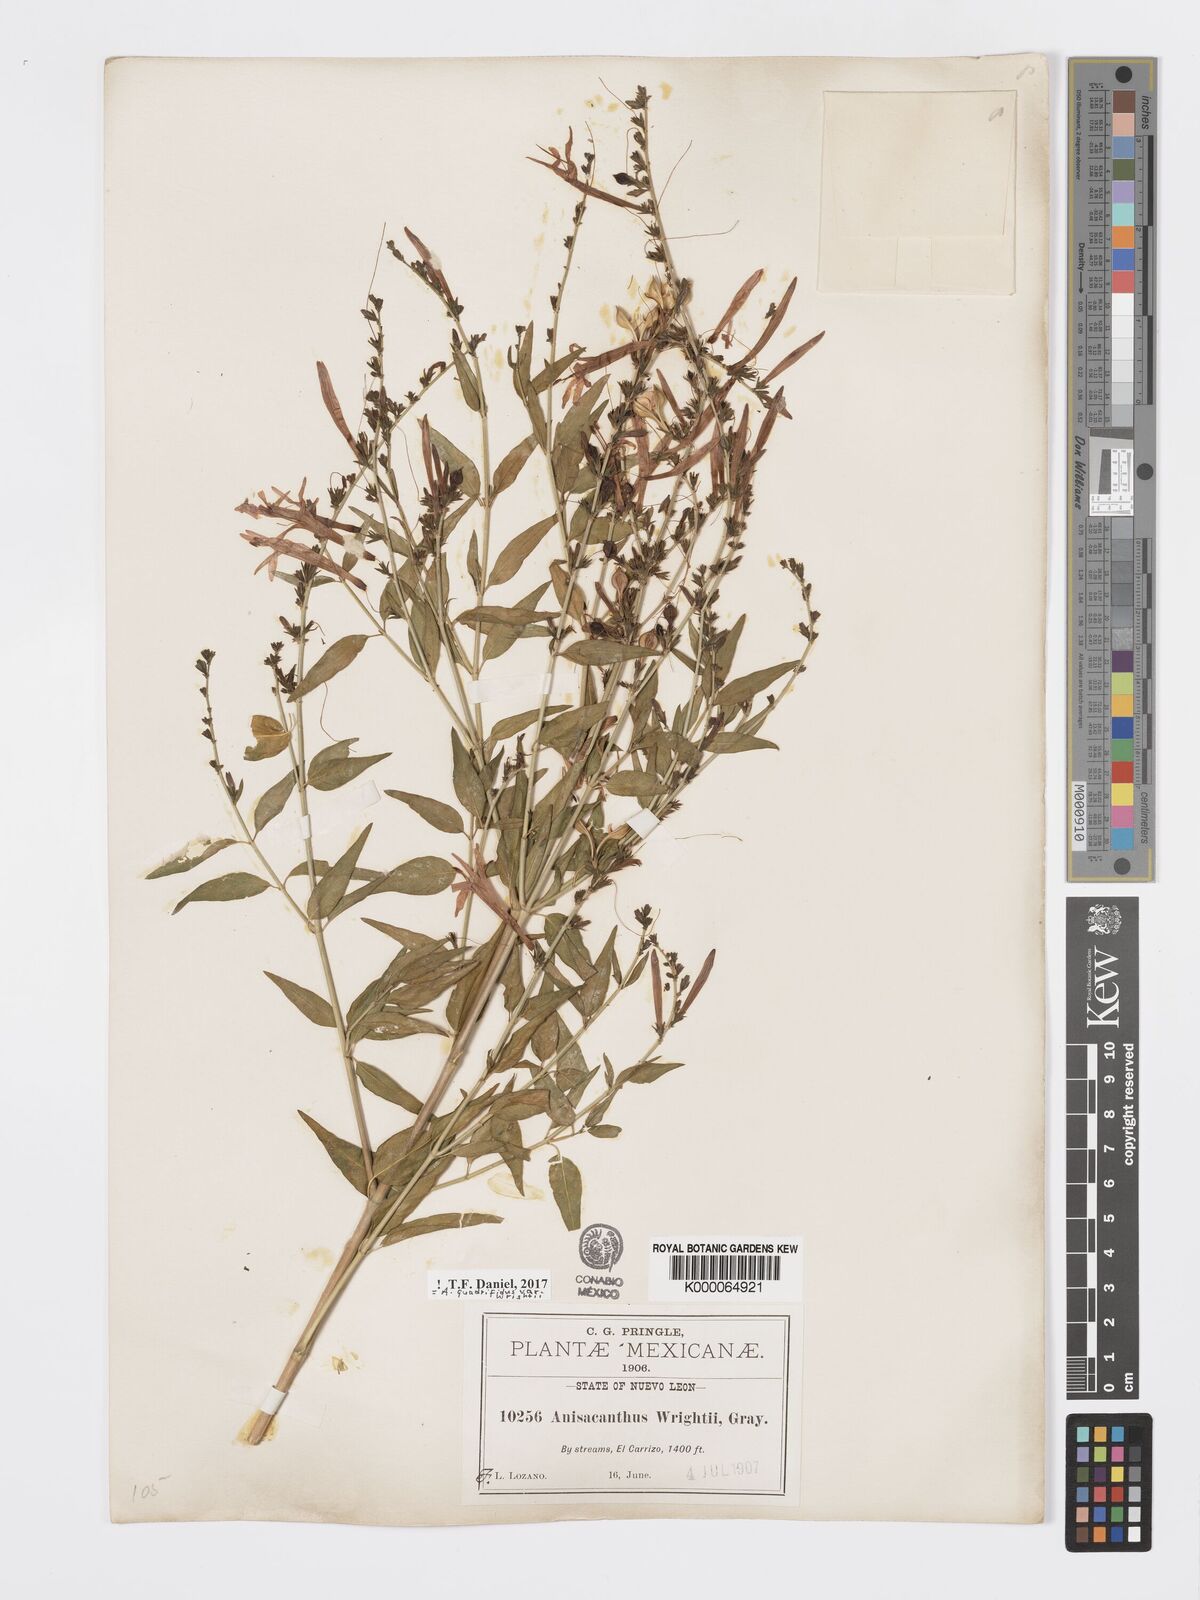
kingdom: Plantae
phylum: Tracheophyta
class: Magnoliopsida
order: Lamiales
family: Acanthaceae
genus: Anisacanthus
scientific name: Anisacanthus quadrifidus
